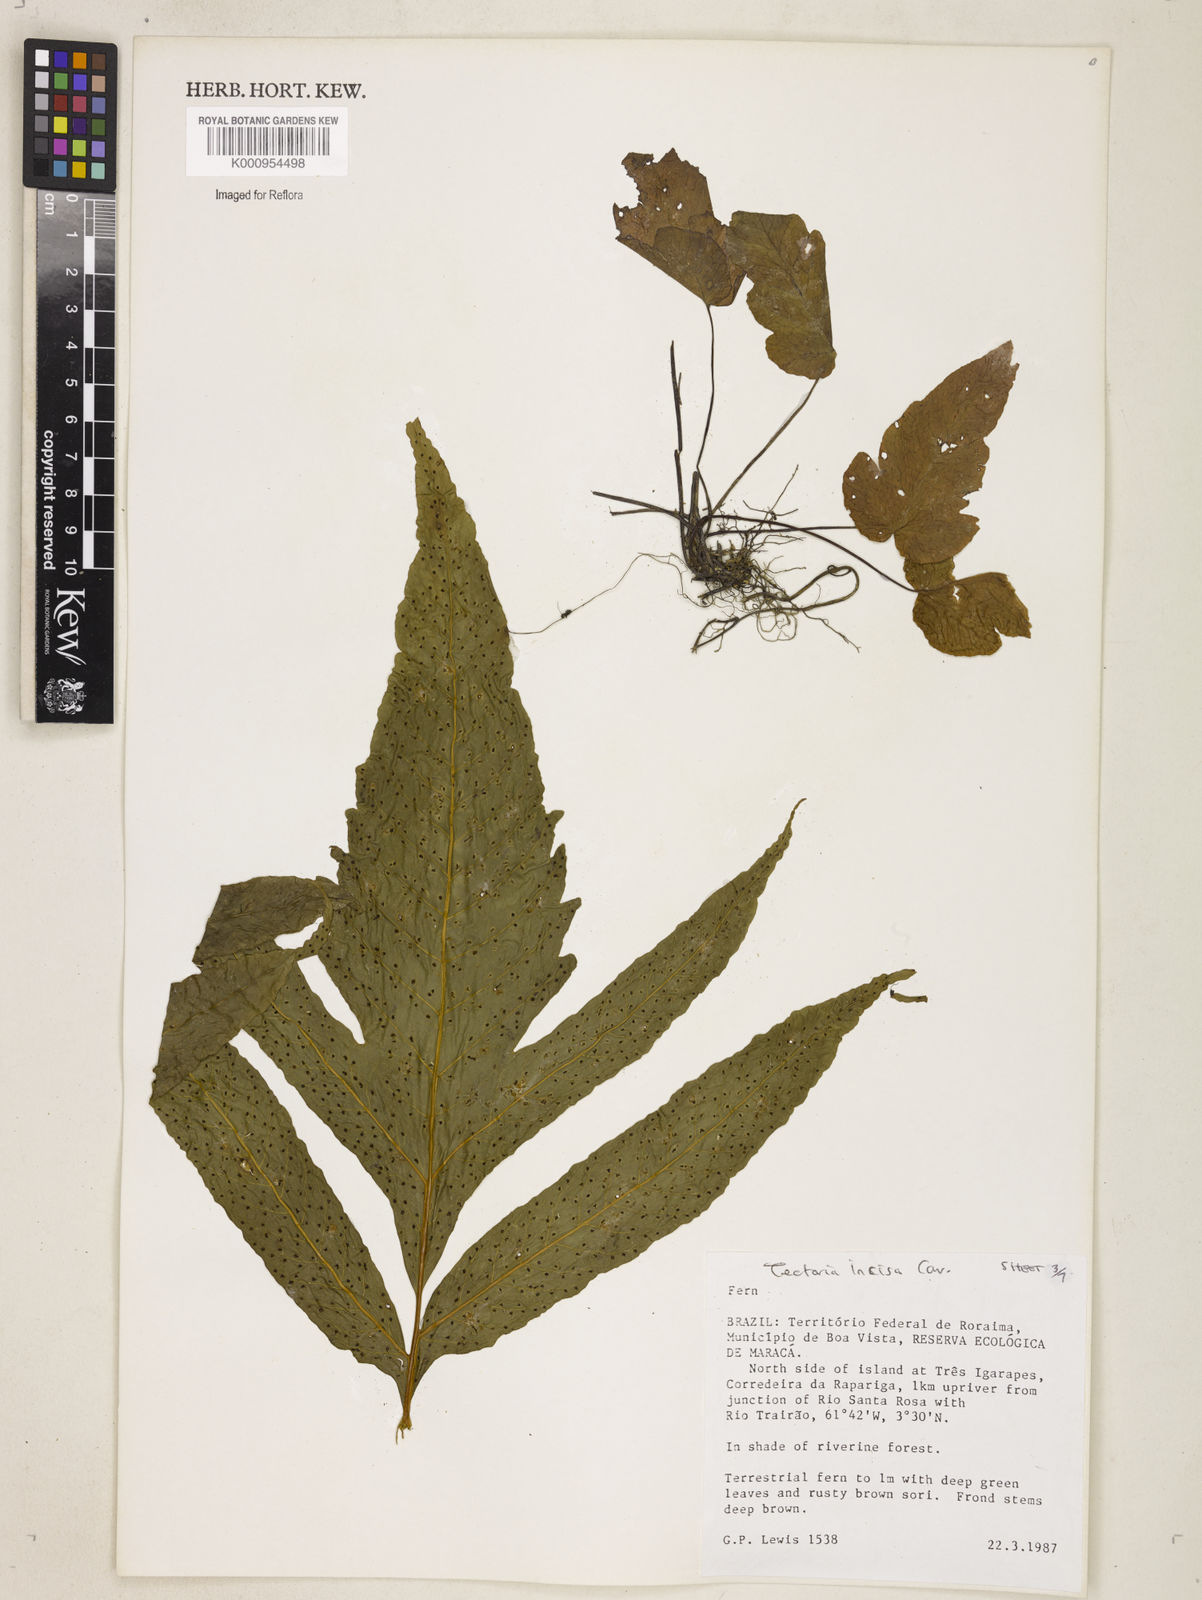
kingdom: Plantae
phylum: Tracheophyta
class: Polypodiopsida
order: Polypodiales
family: Tectariaceae
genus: Tectaria
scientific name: Tectaria incisa
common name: Incised halberd fern
